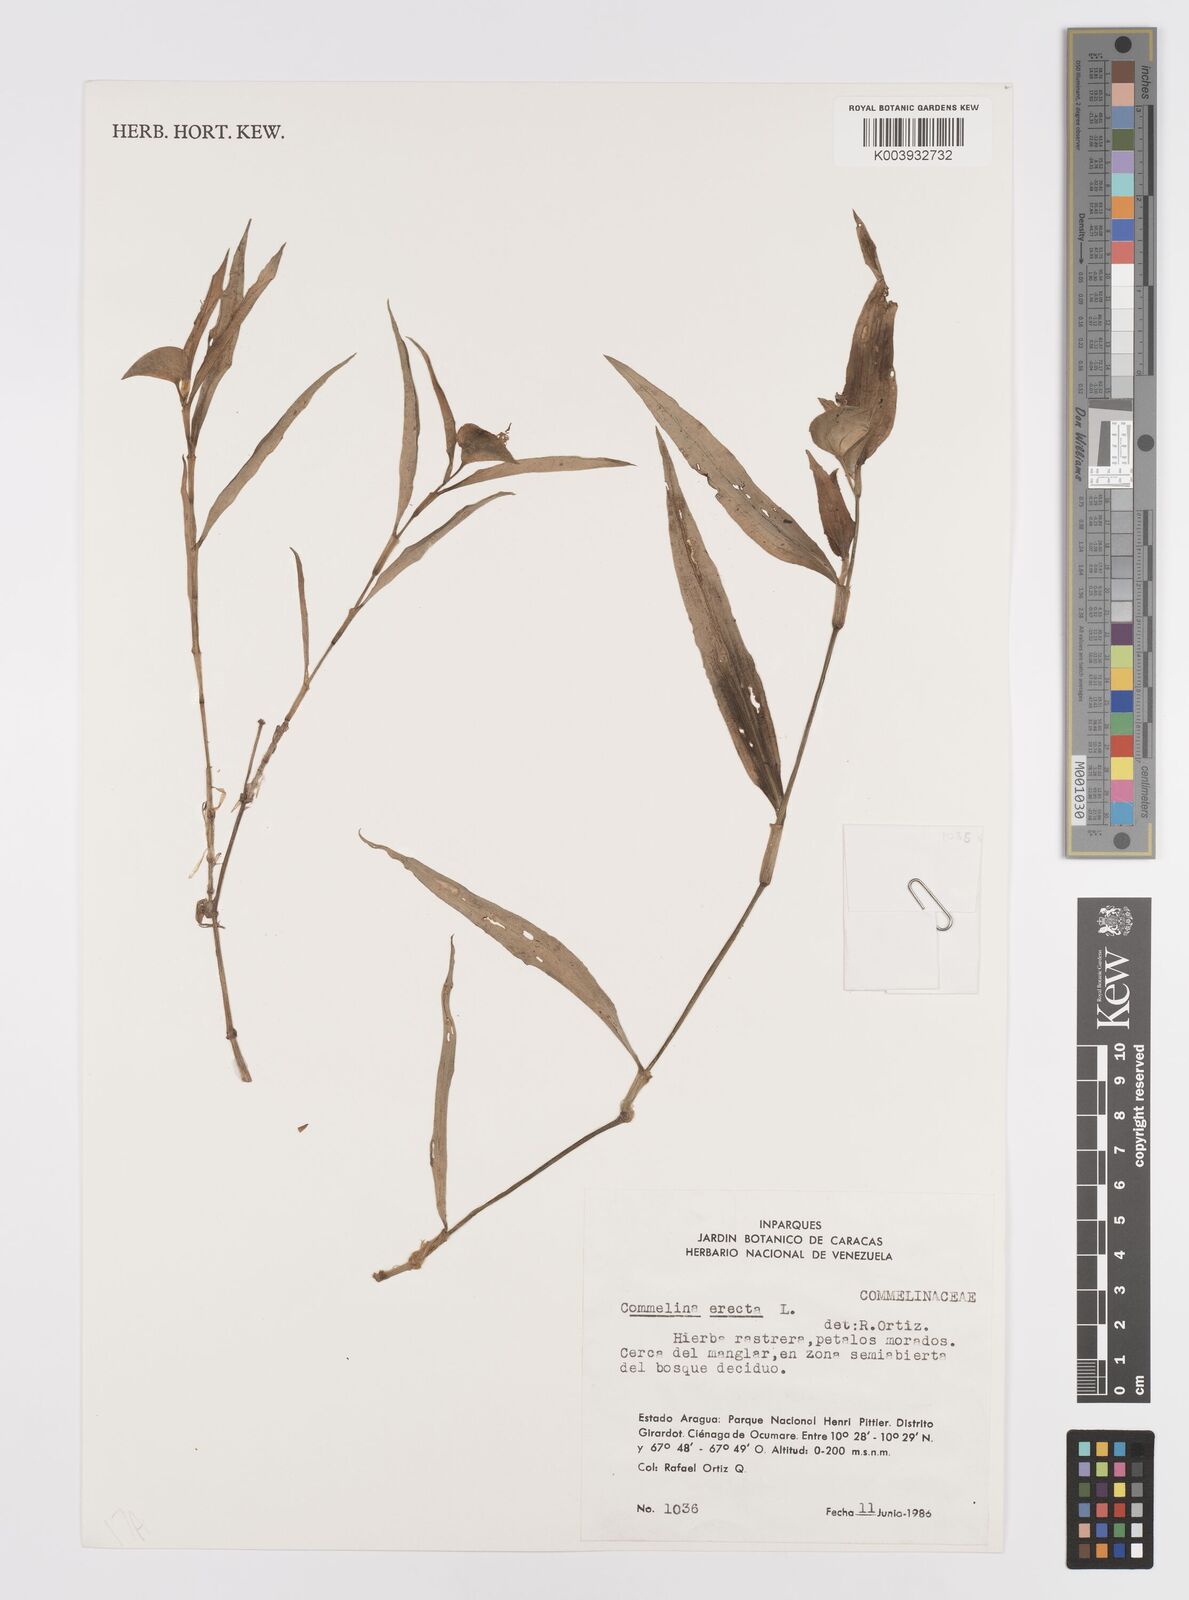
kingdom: Plantae
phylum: Tracheophyta
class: Liliopsida
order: Commelinales
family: Commelinaceae
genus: Commelina
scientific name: Commelina erecta
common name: Blousel blommetjie
